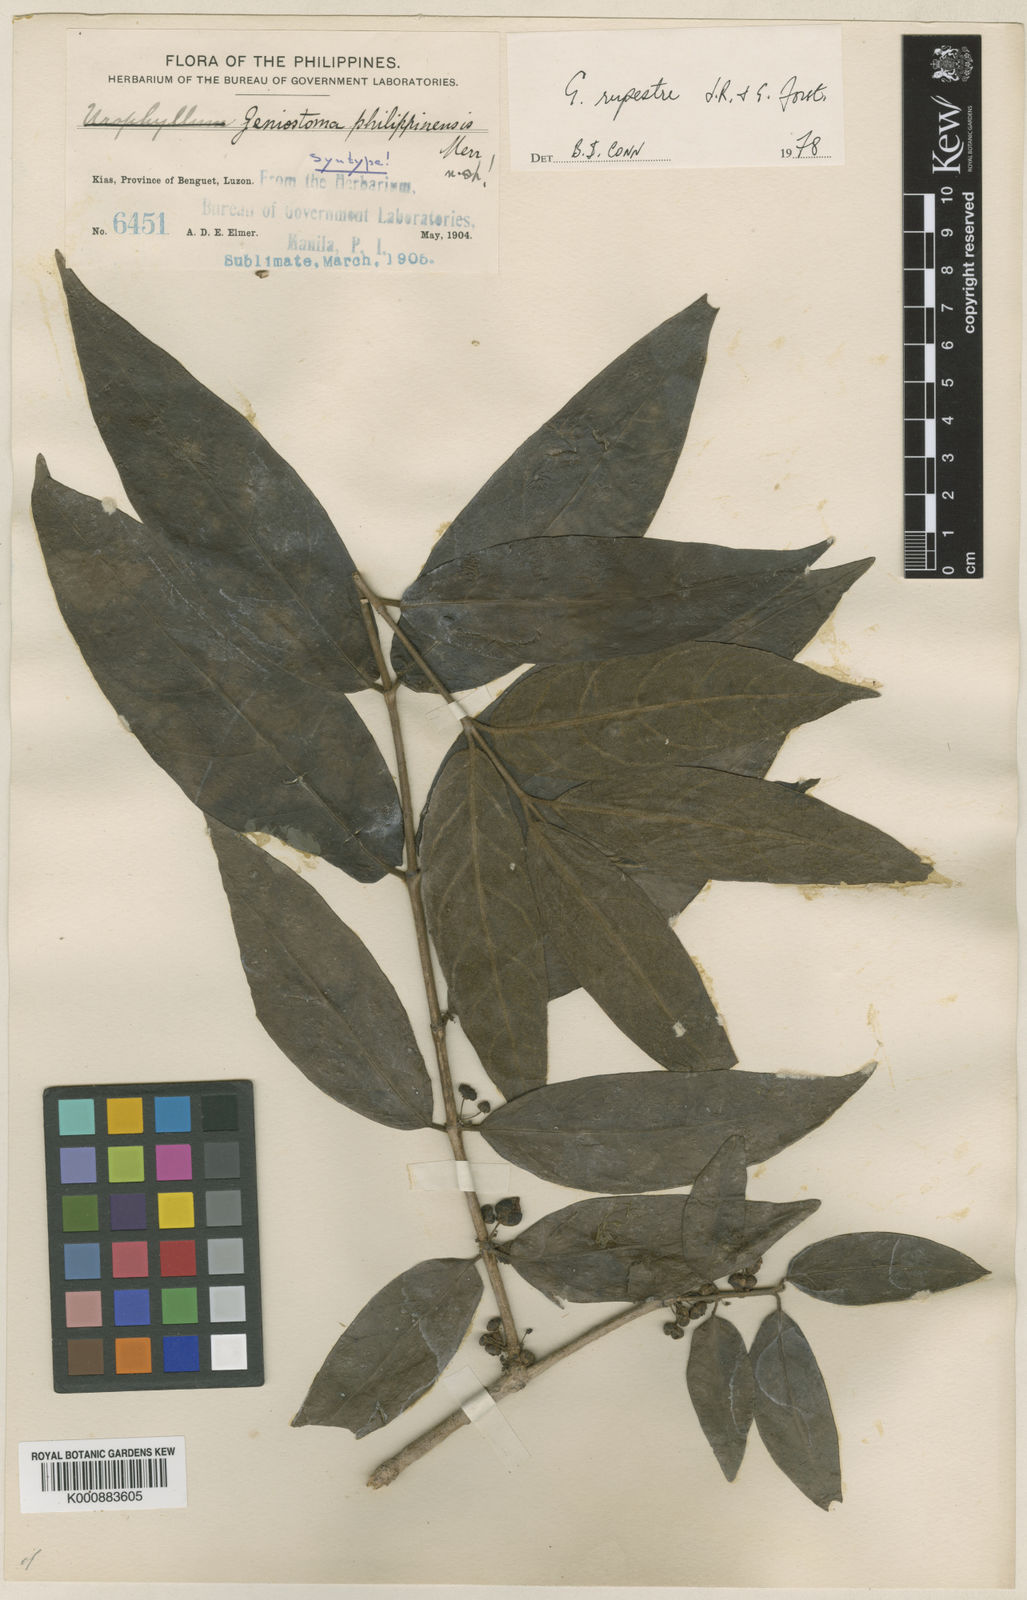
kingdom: Plantae
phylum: Tracheophyta
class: Magnoliopsida
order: Gentianales
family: Loganiaceae
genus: Geniostoma
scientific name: Geniostoma rupestre
